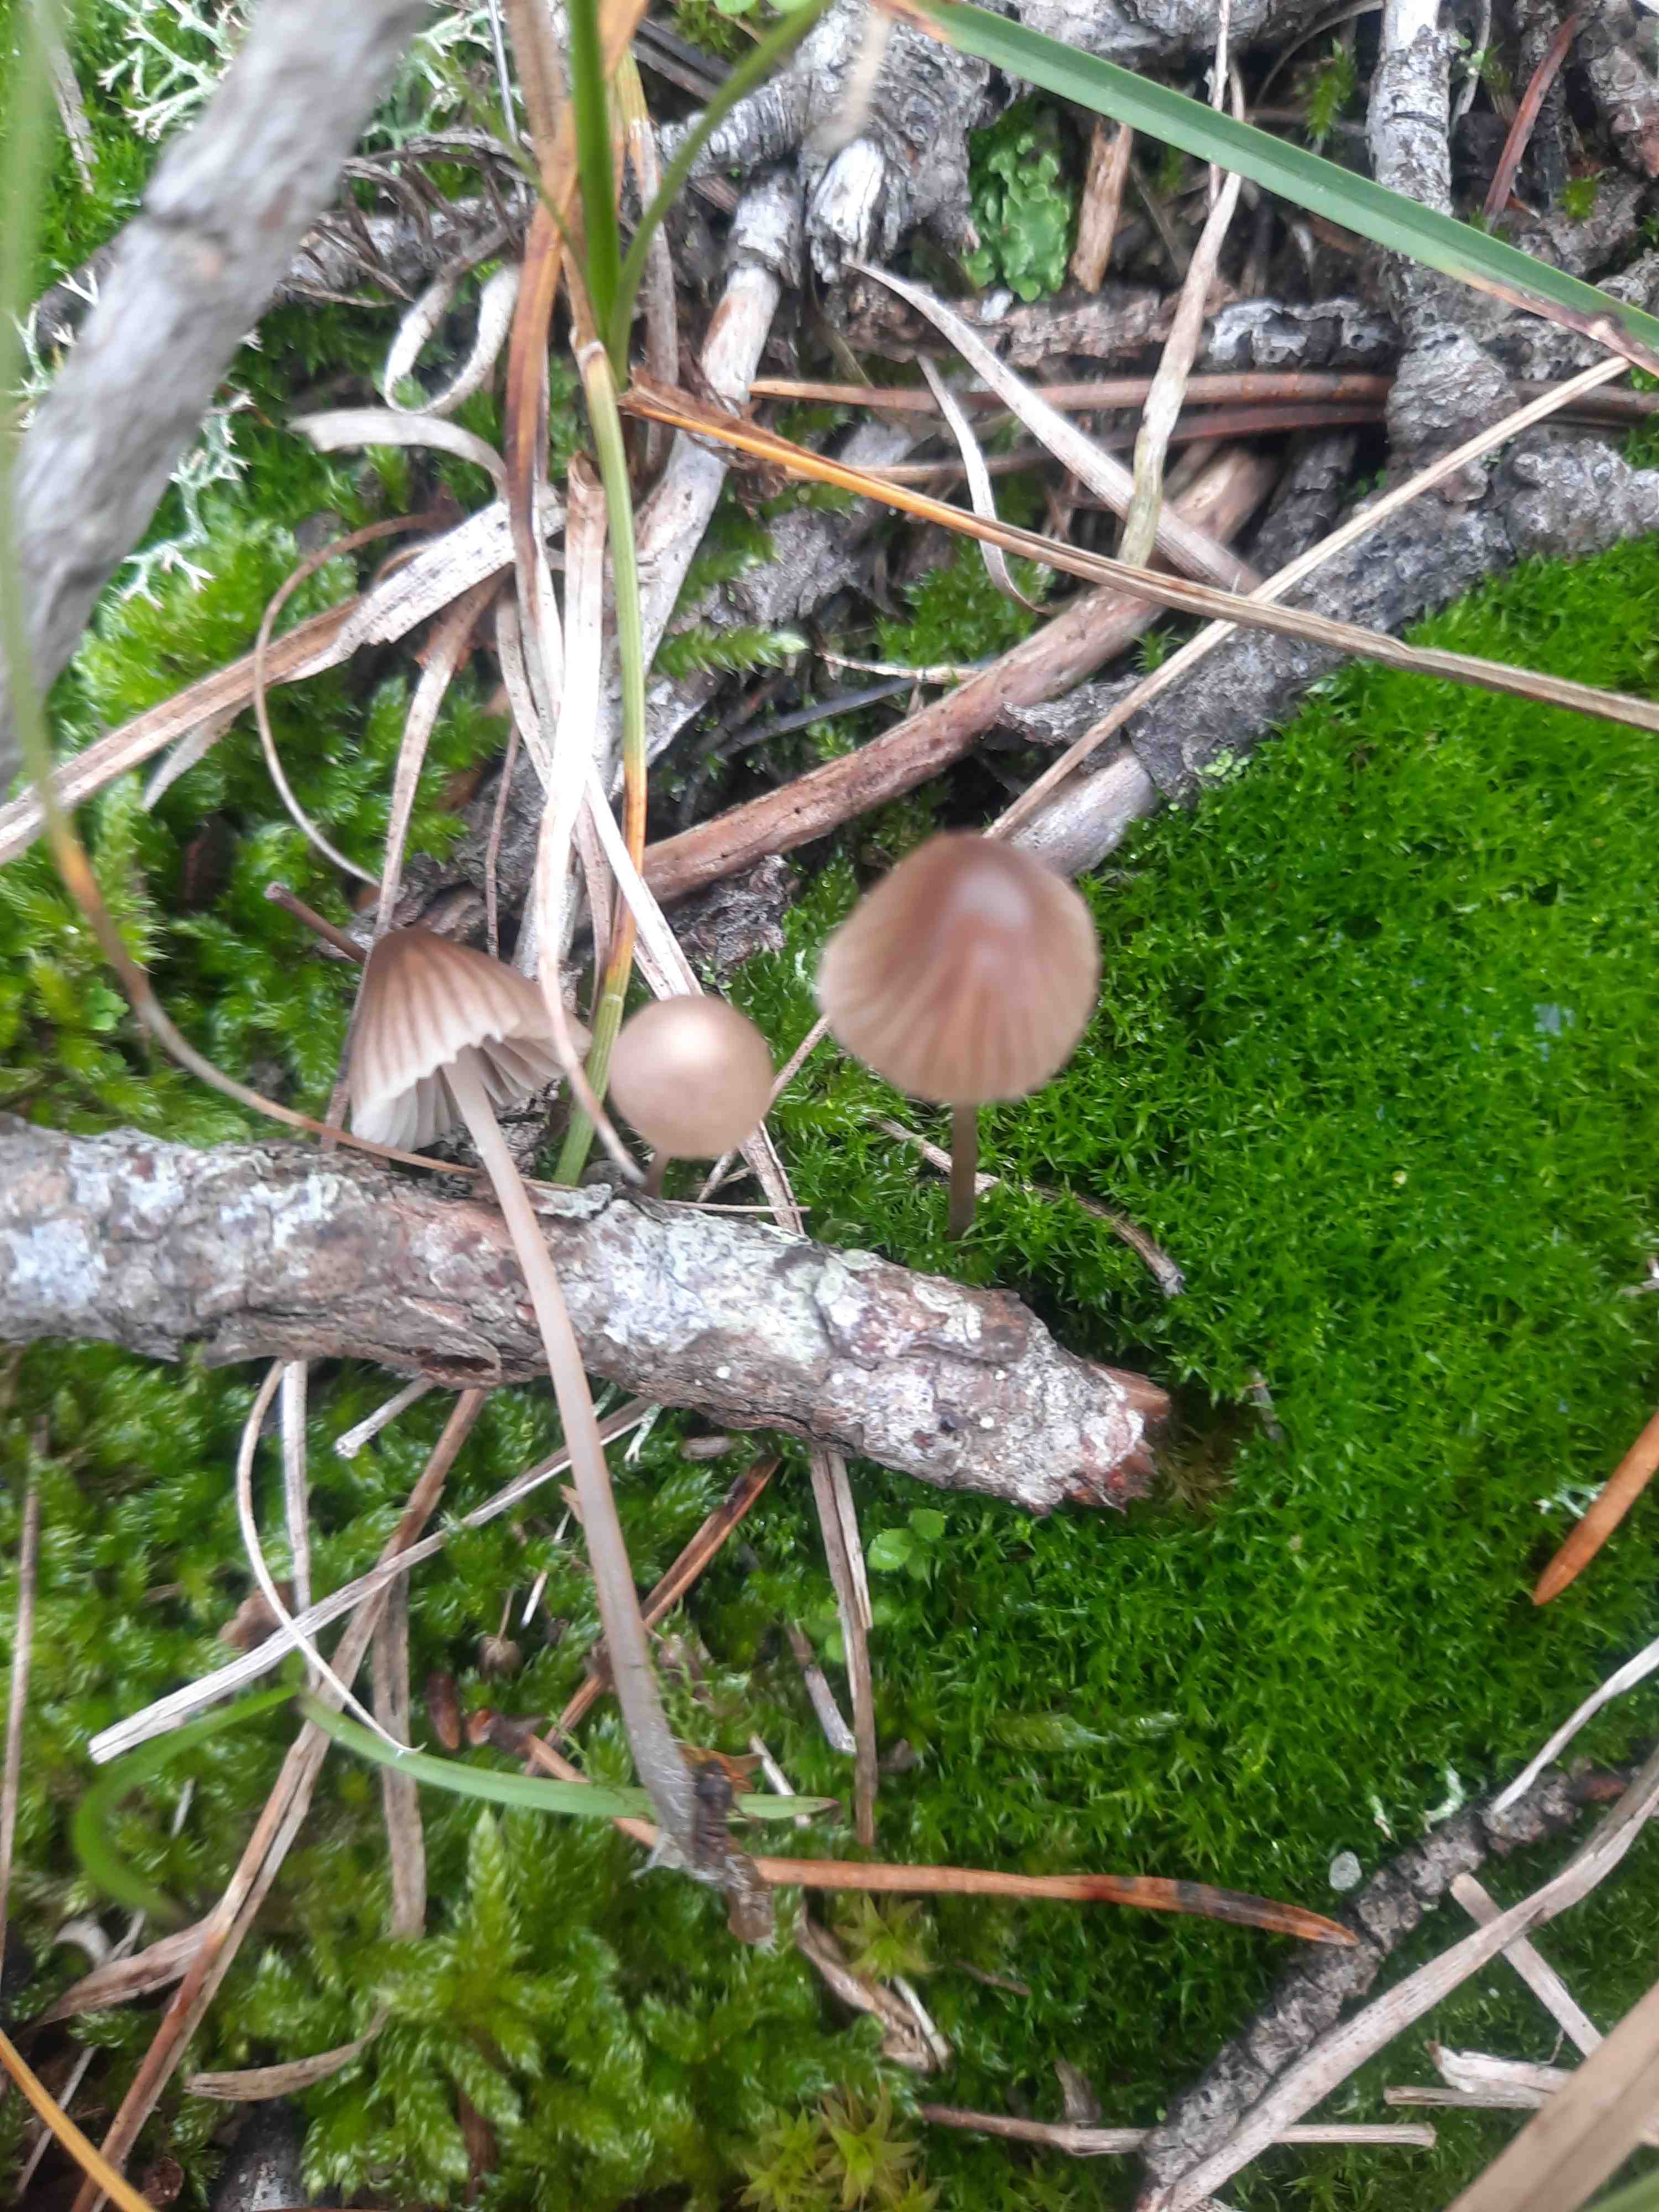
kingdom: Fungi
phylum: Basidiomycota
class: Agaricomycetes
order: Agaricales
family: Mycenaceae
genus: Mycena
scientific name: Mycena
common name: huesvamp
